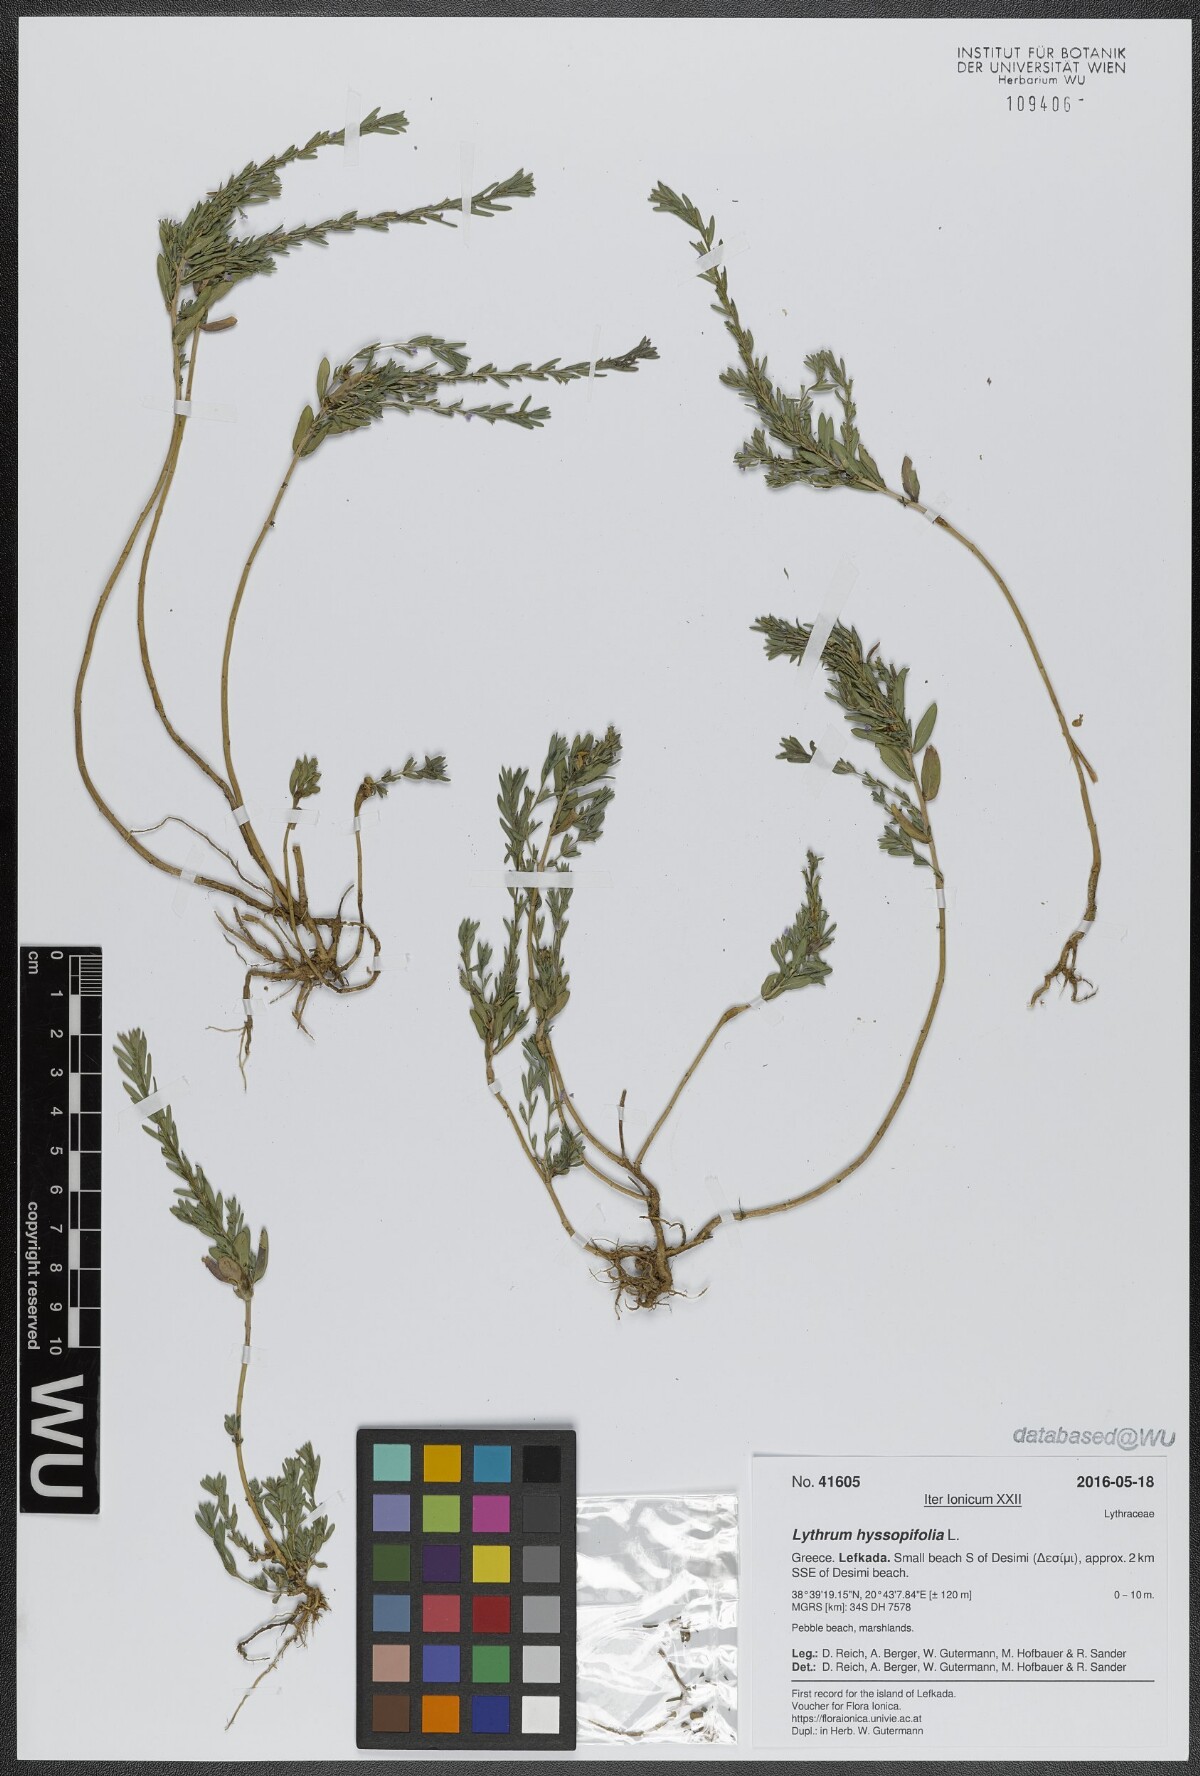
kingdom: Plantae
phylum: Tracheophyta
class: Magnoliopsida
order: Myrtales
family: Lythraceae
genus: Lythrum
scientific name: Lythrum hyssopifolia
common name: Grass-poly
